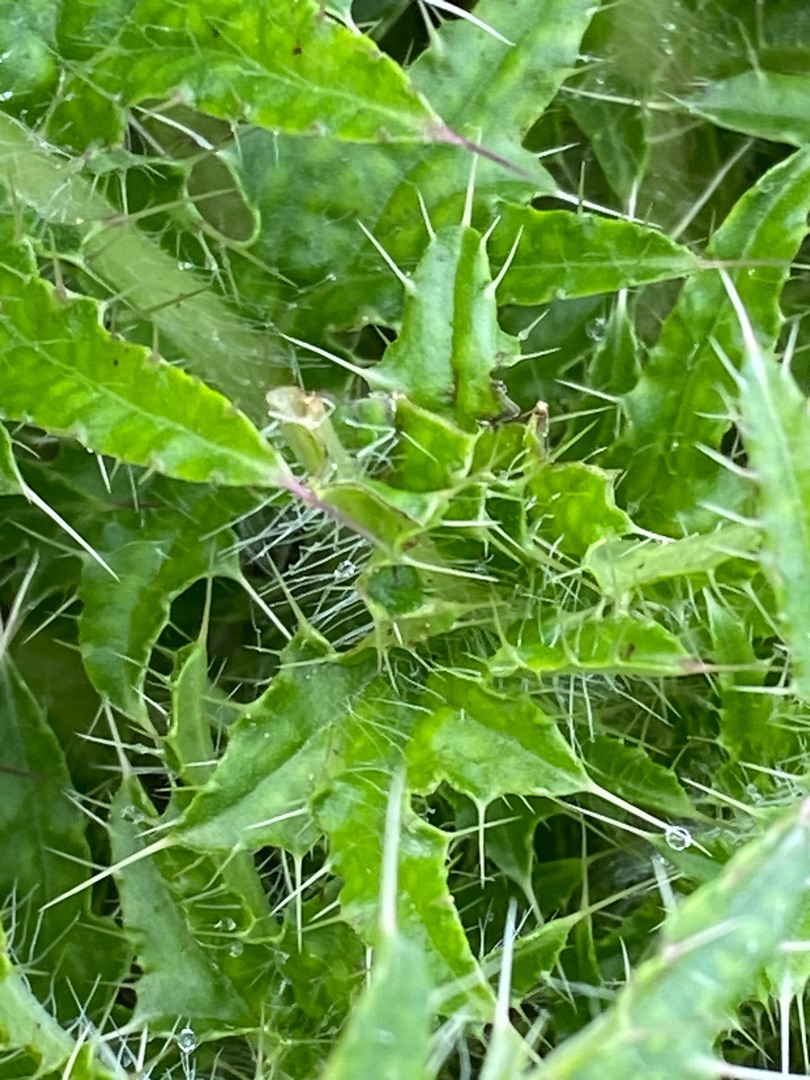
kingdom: Plantae
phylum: Tracheophyta
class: Magnoliopsida
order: Asterales
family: Asteraceae
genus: Cirsium
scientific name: Cirsium palustre
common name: Kær-tidsel
